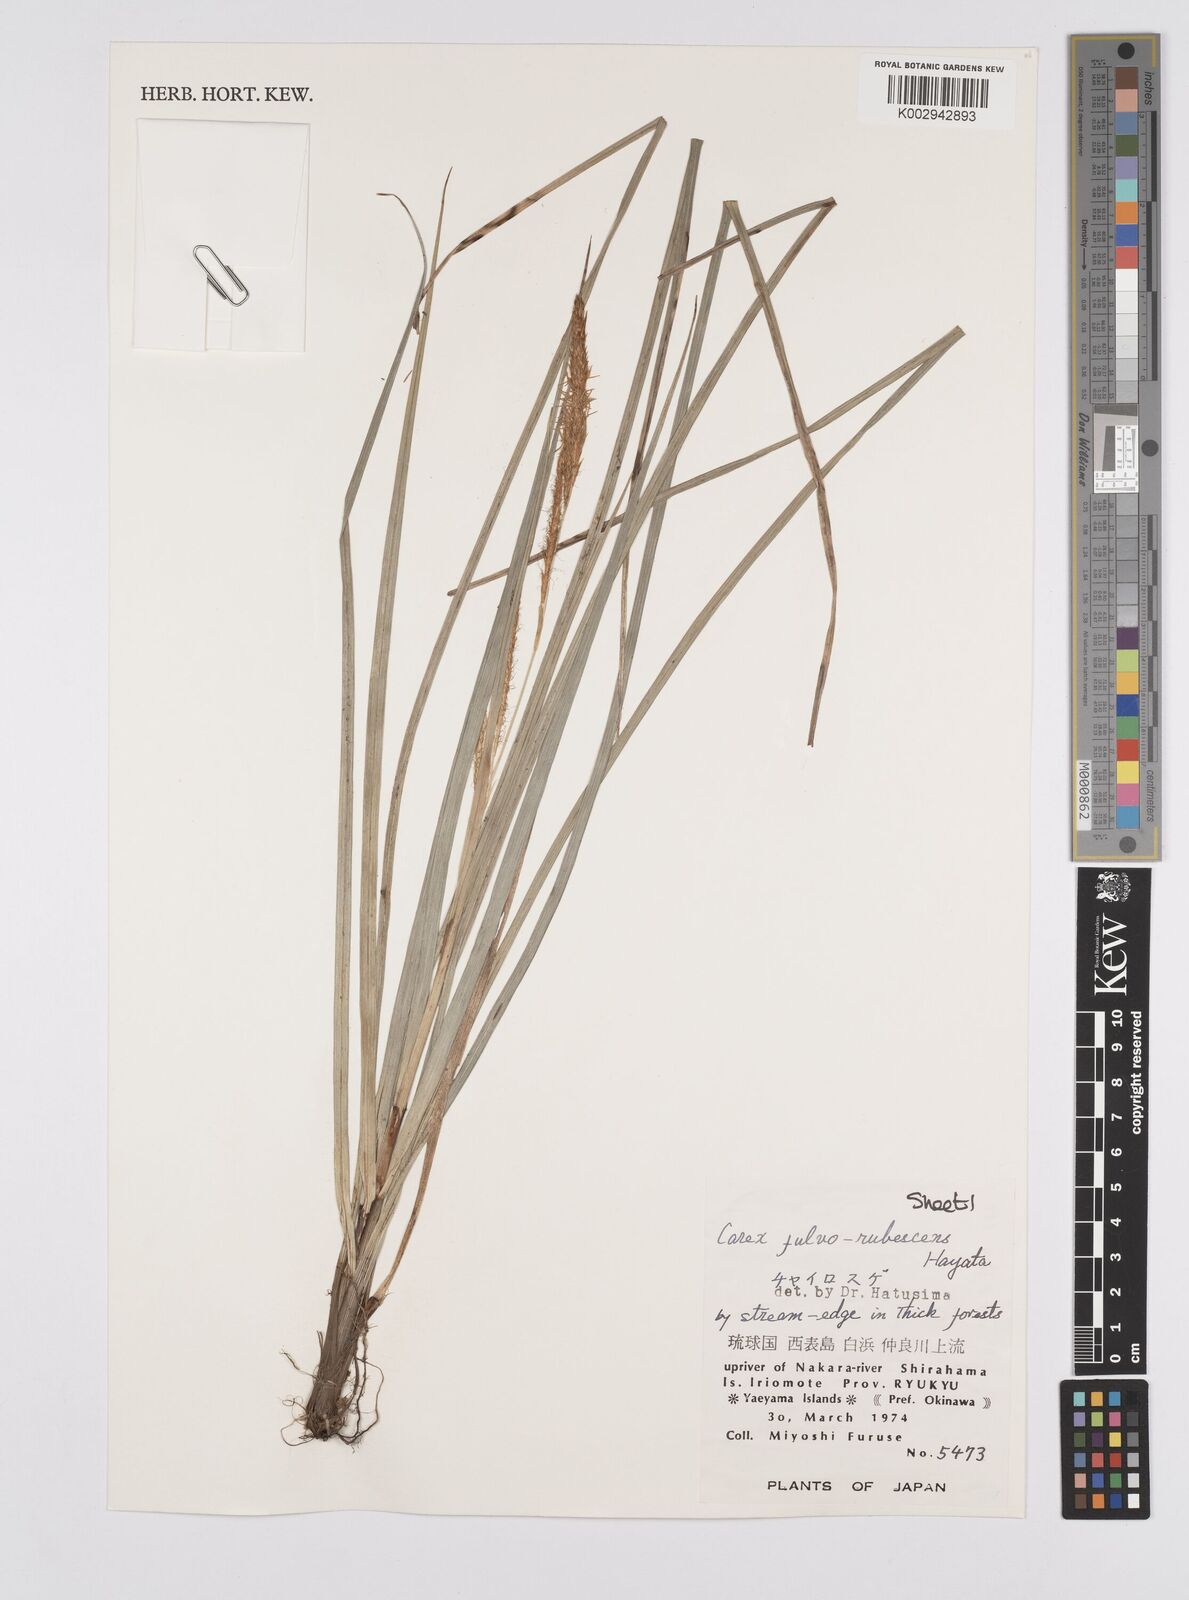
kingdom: Plantae
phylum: Tracheophyta
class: Liliopsida
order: Poales
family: Cyperaceae
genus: Carex
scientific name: Carex fulvorubescens
